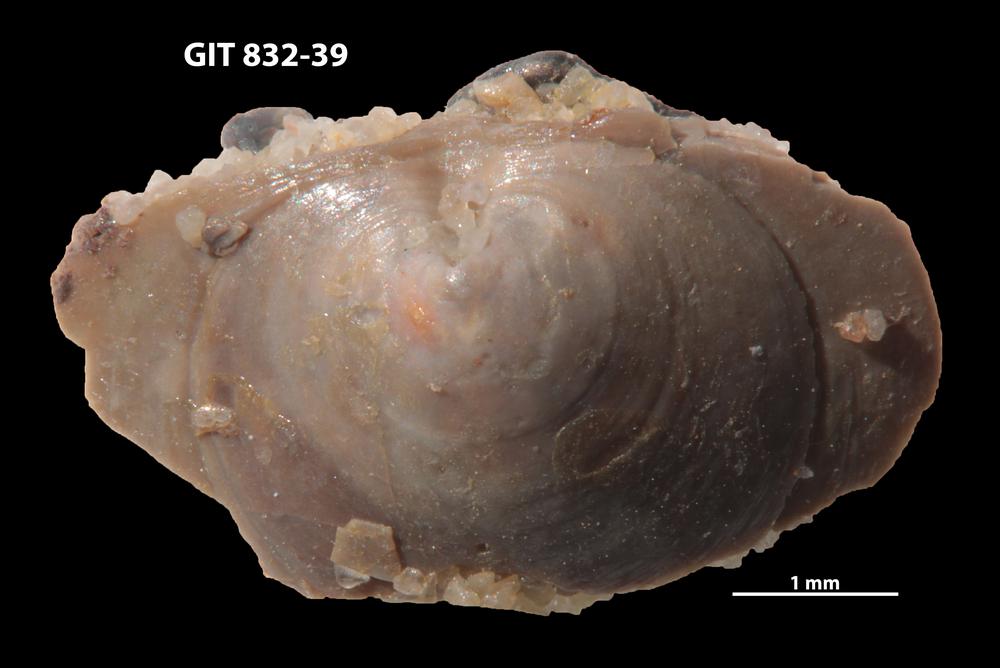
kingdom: Animalia
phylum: Brachiopoda
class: Lingulata
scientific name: Lingulata
